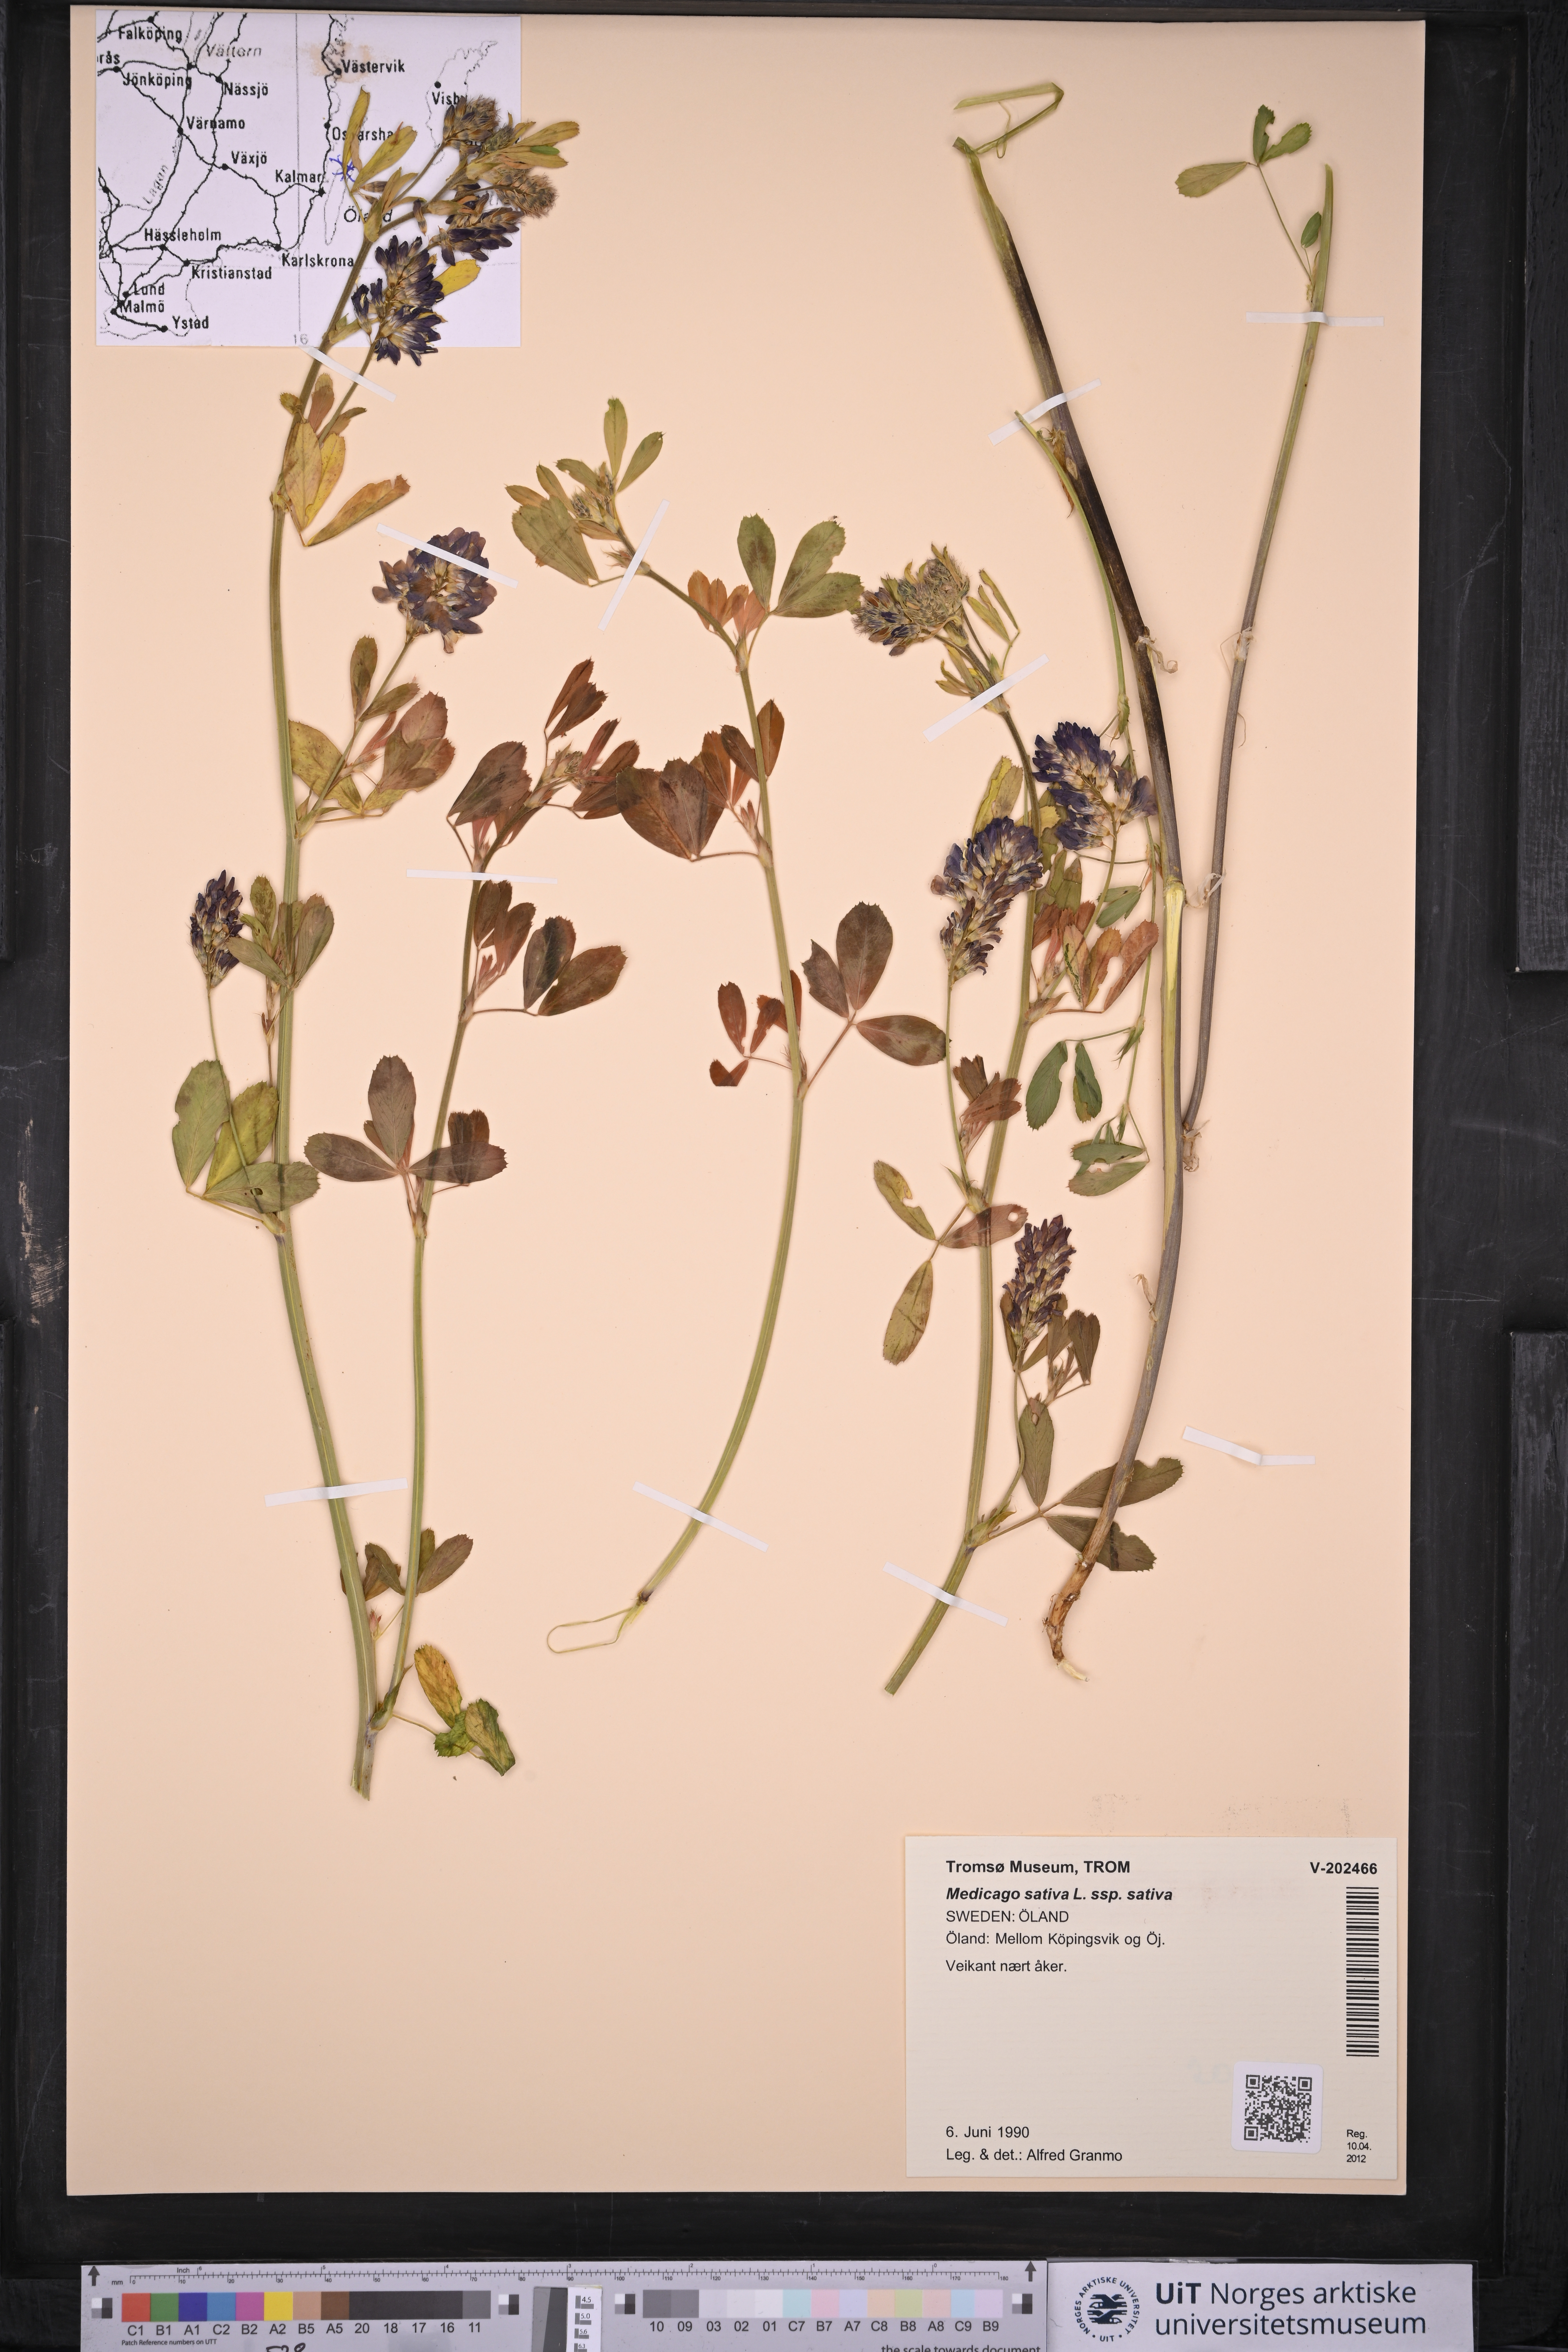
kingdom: Plantae
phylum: Tracheophyta
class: Magnoliopsida
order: Fabales
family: Fabaceae
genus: Medicago
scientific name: Medicago sativa
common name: Alfalfa
